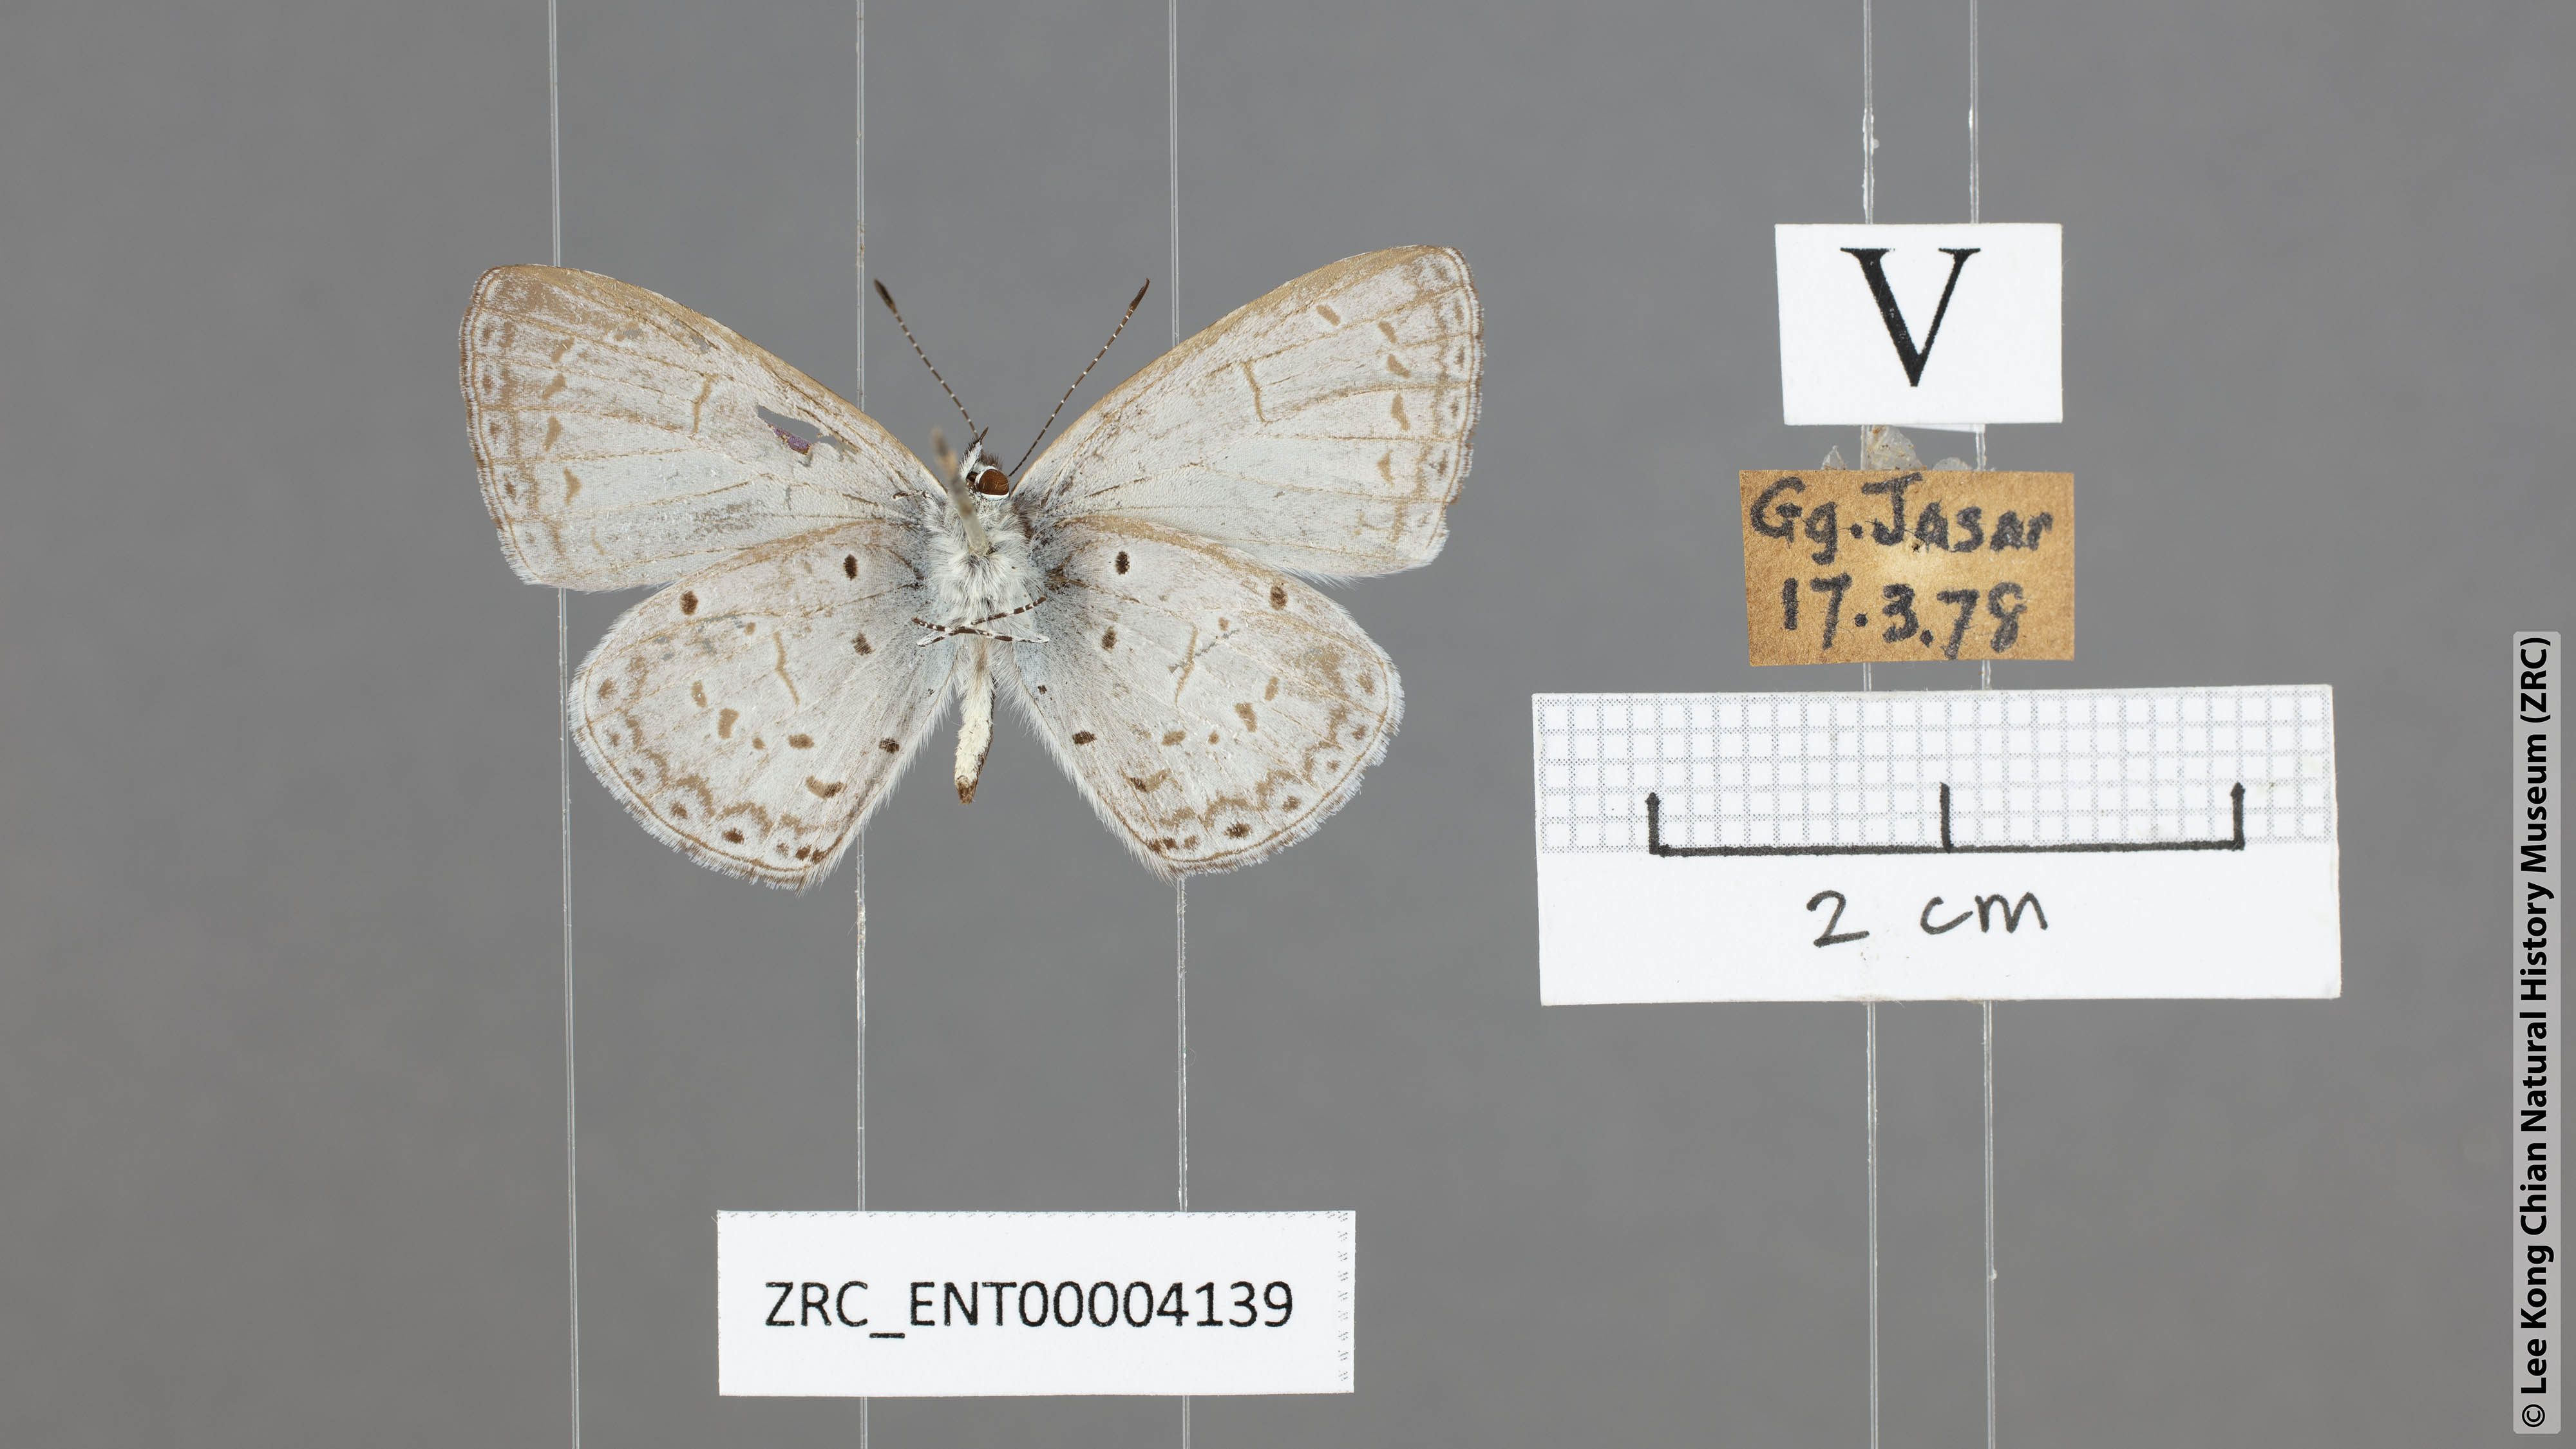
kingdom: Animalia
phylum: Arthropoda
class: Insecta
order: Lepidoptera
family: Lycaenidae
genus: Celastrina
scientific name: Celastrina lavendularis
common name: Plain hedge blue
